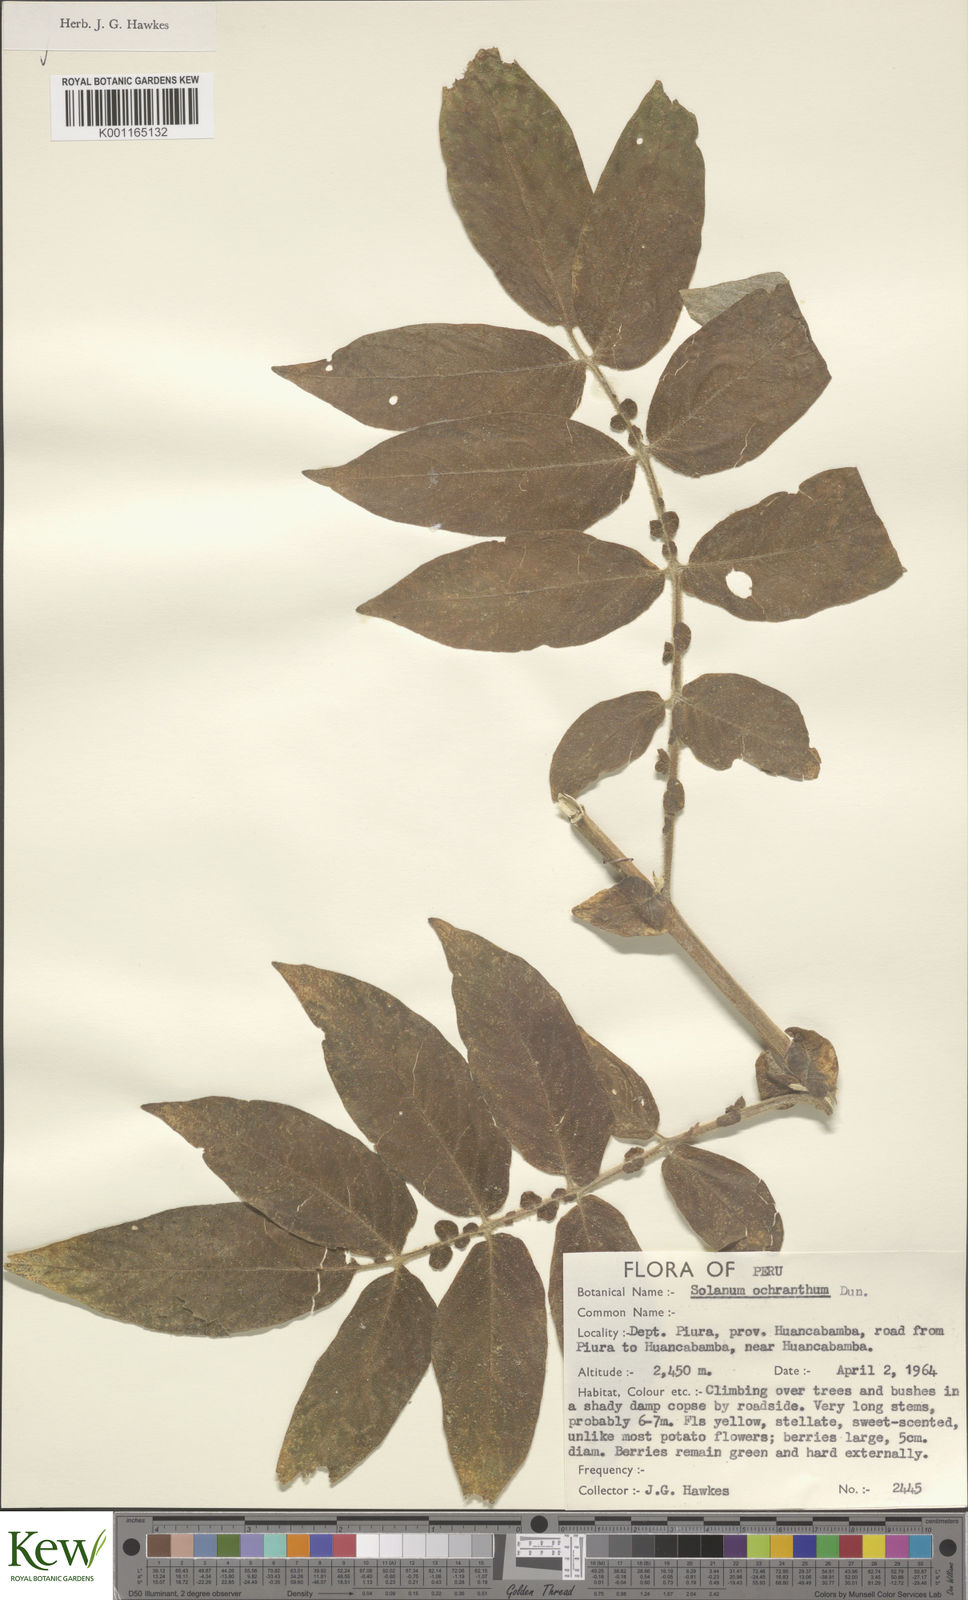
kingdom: Plantae
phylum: Tracheophyta
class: Magnoliopsida
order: Solanales
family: Solanaceae
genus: Solanum
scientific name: Solanum ochranthum
